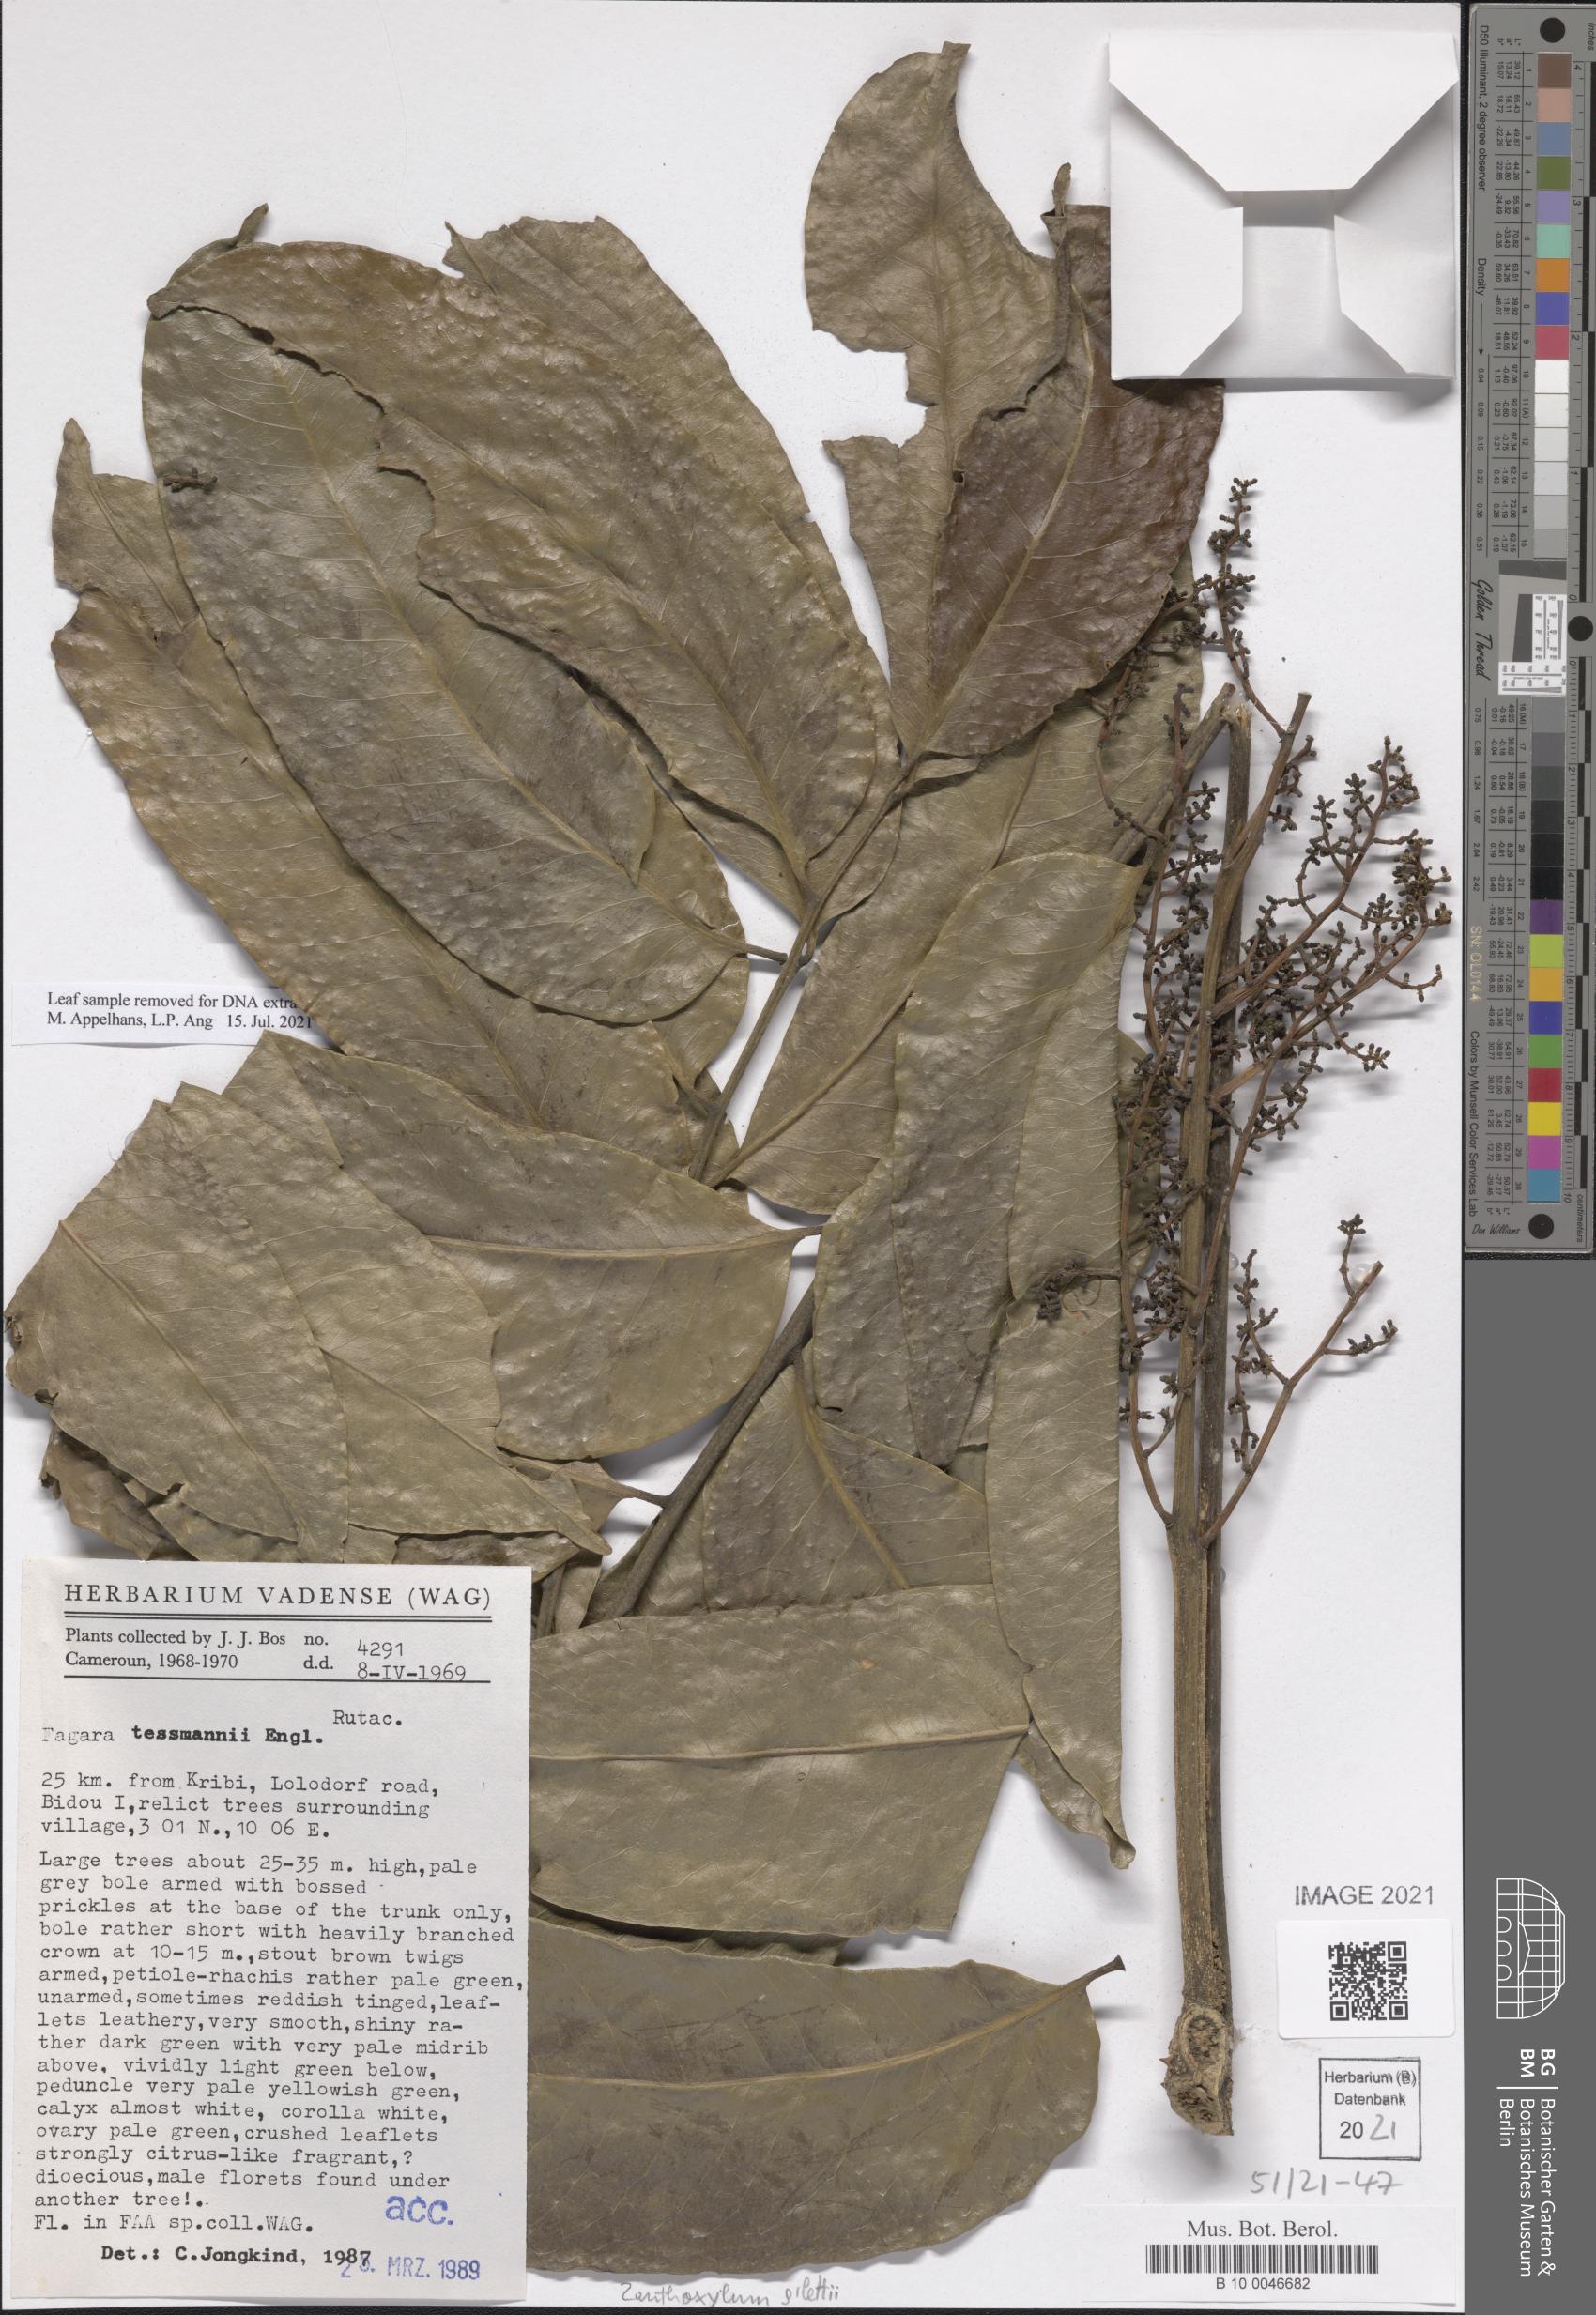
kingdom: Plantae
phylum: Tracheophyta
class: Magnoliopsida
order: Sapindales
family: Rutaceae
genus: Zanthoxylum
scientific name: Zanthoxylum gilletii
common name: African satinwood
